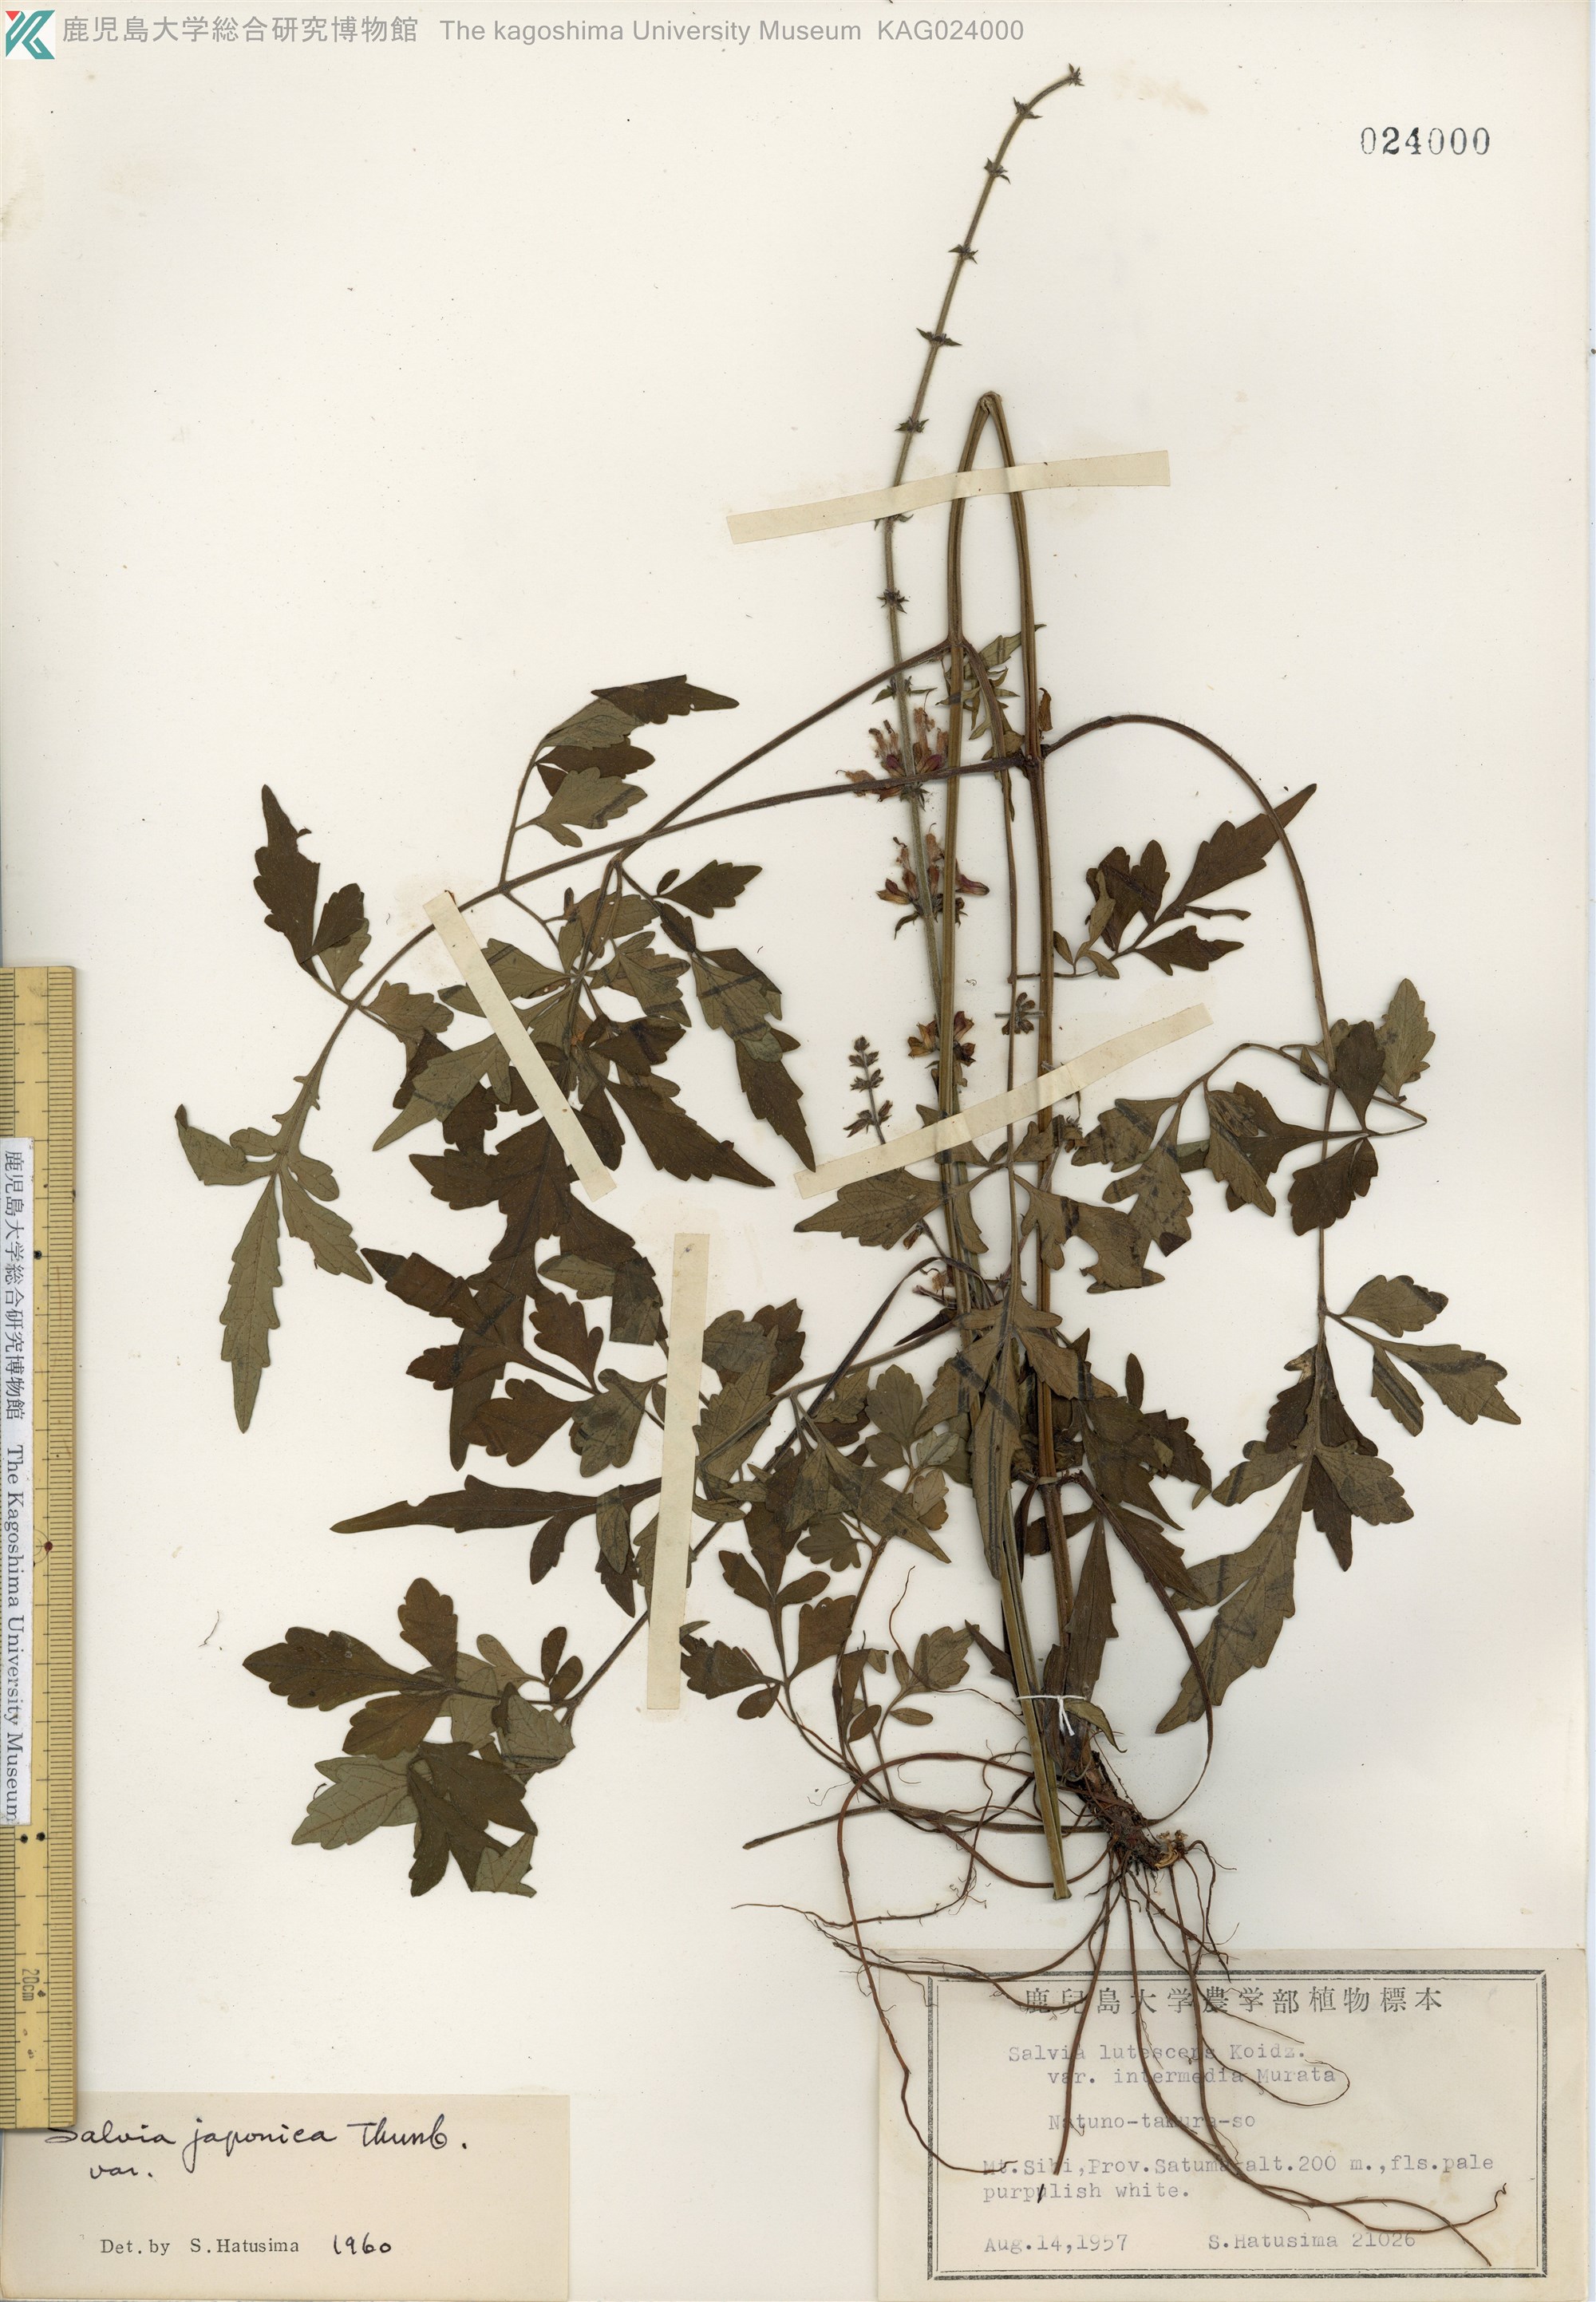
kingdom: Plantae
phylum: Tracheophyta
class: Magnoliopsida
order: Lamiales
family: Lamiaceae
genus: Salvia
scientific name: Salvia japonica
